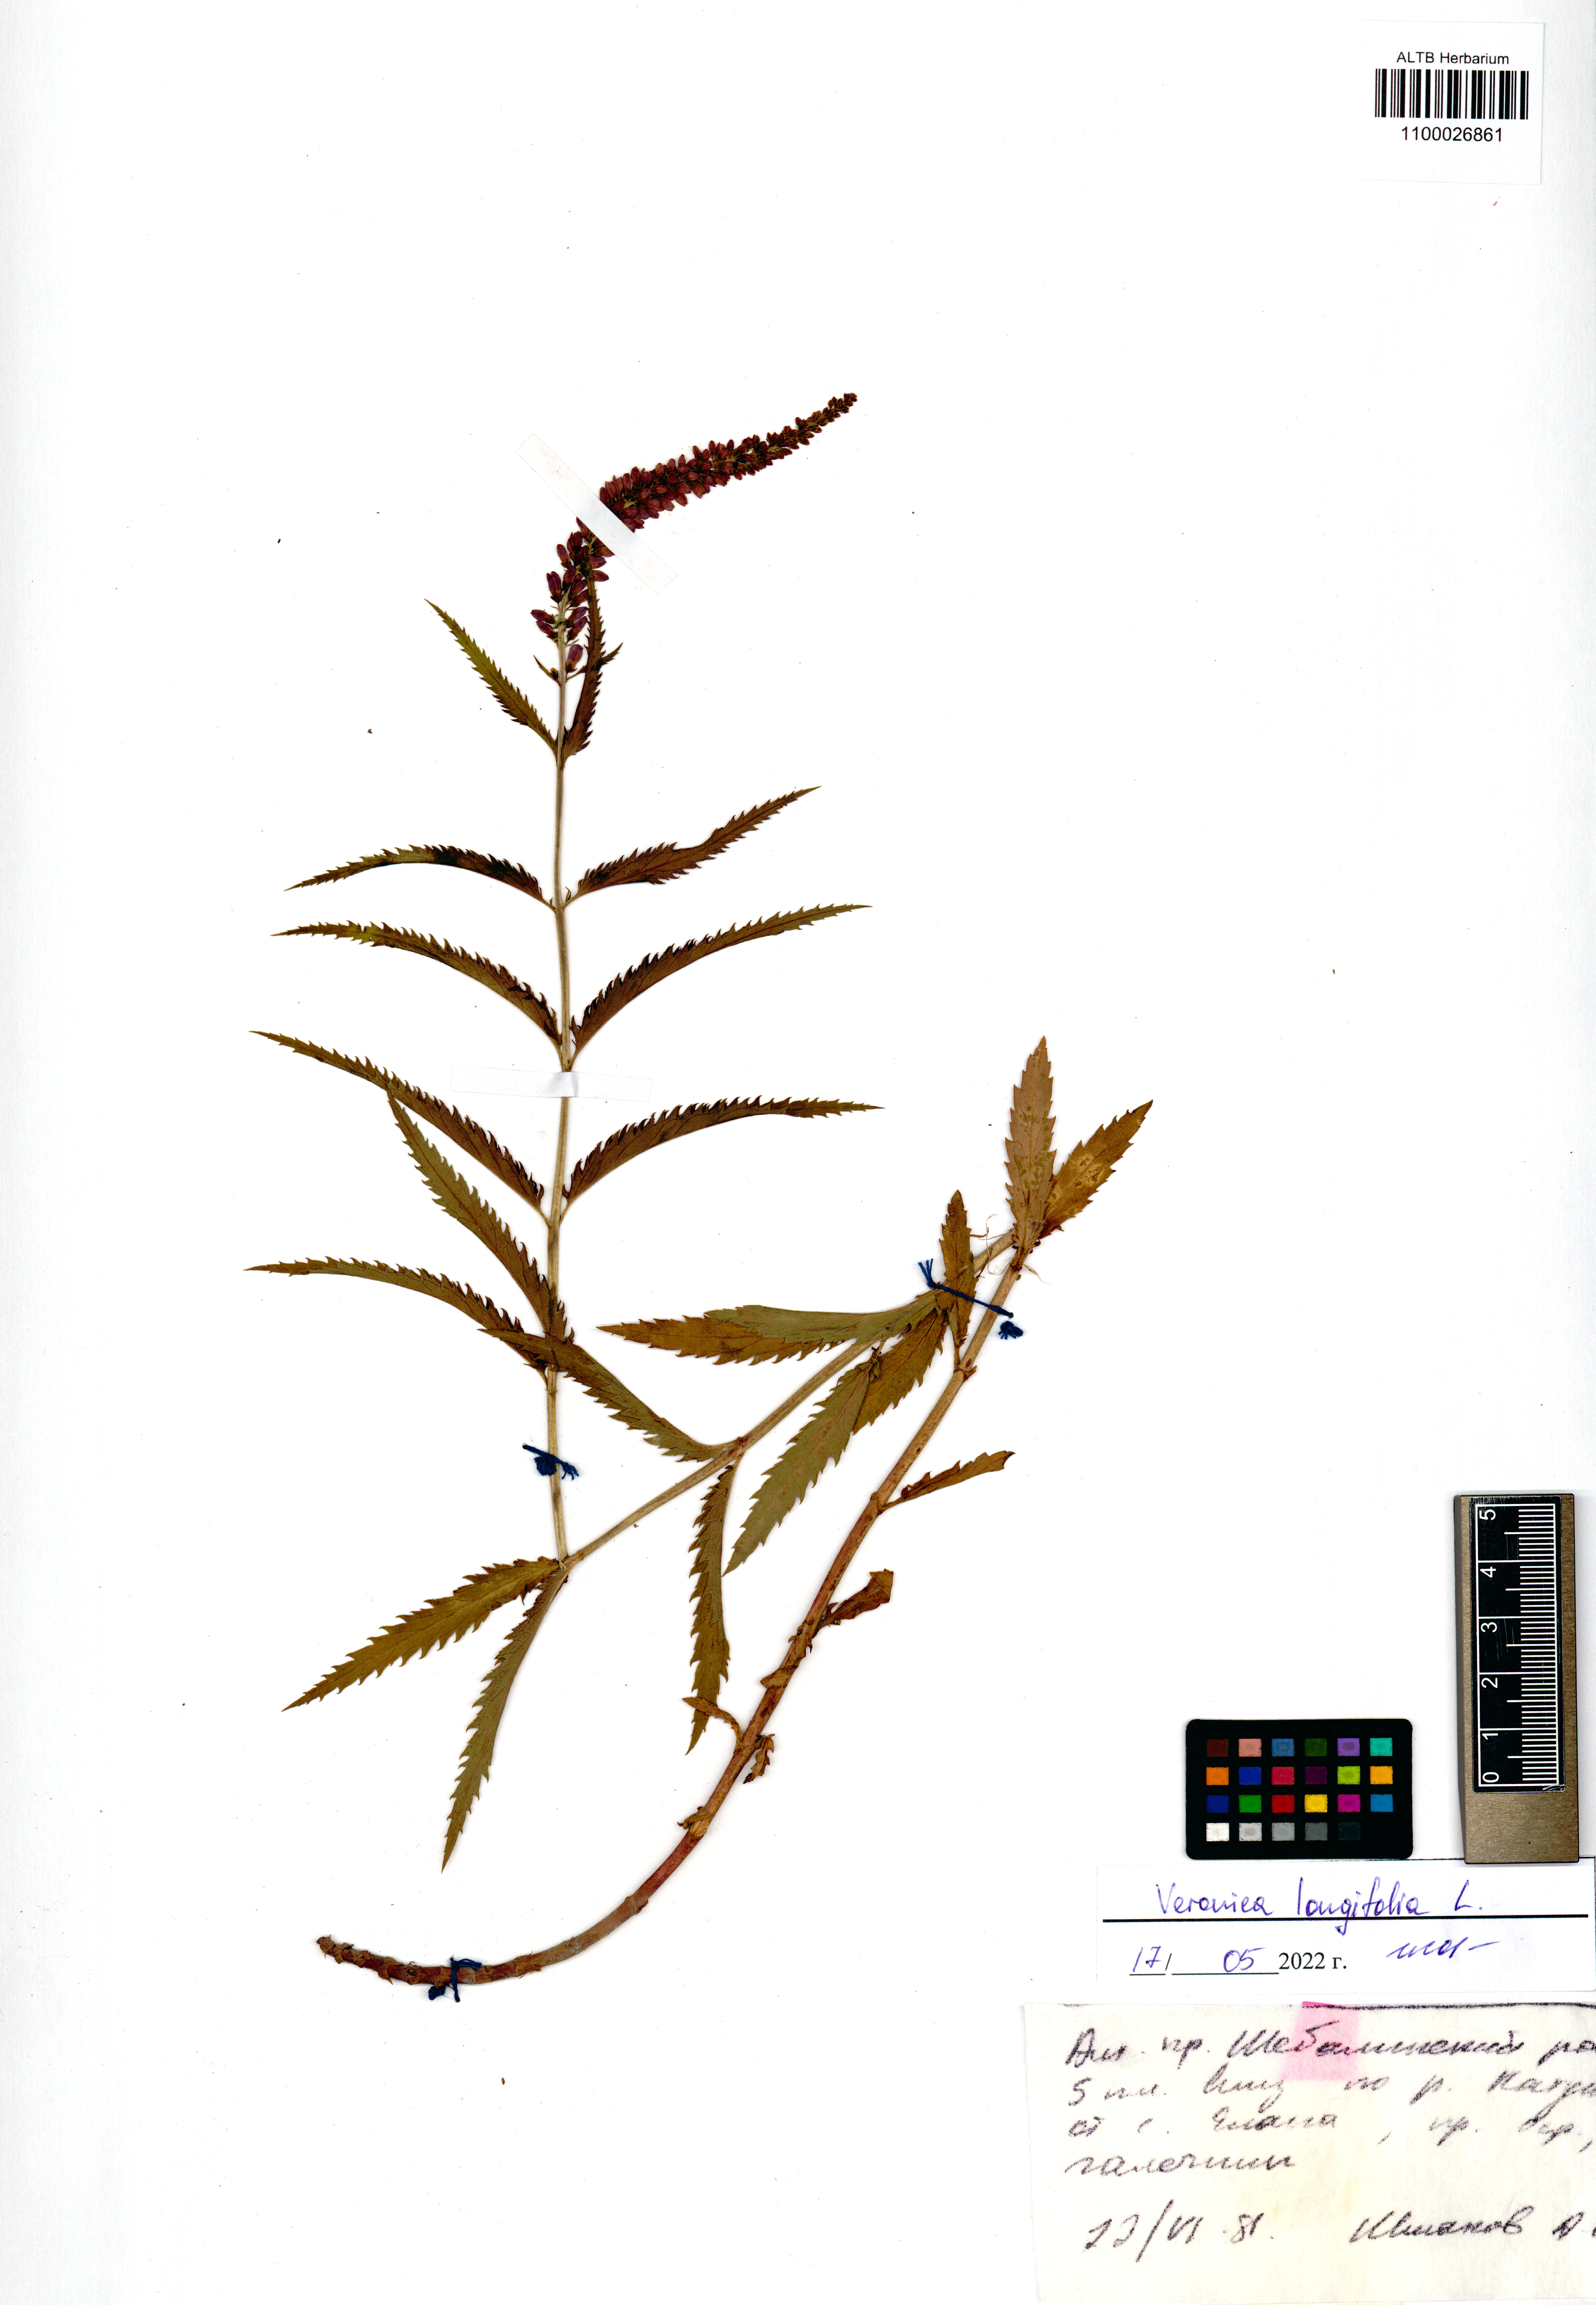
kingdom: Plantae
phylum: Tracheophyta
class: Magnoliopsida
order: Lamiales
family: Plantaginaceae
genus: Veronica
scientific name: Veronica longifolia
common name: Garden speedwell
